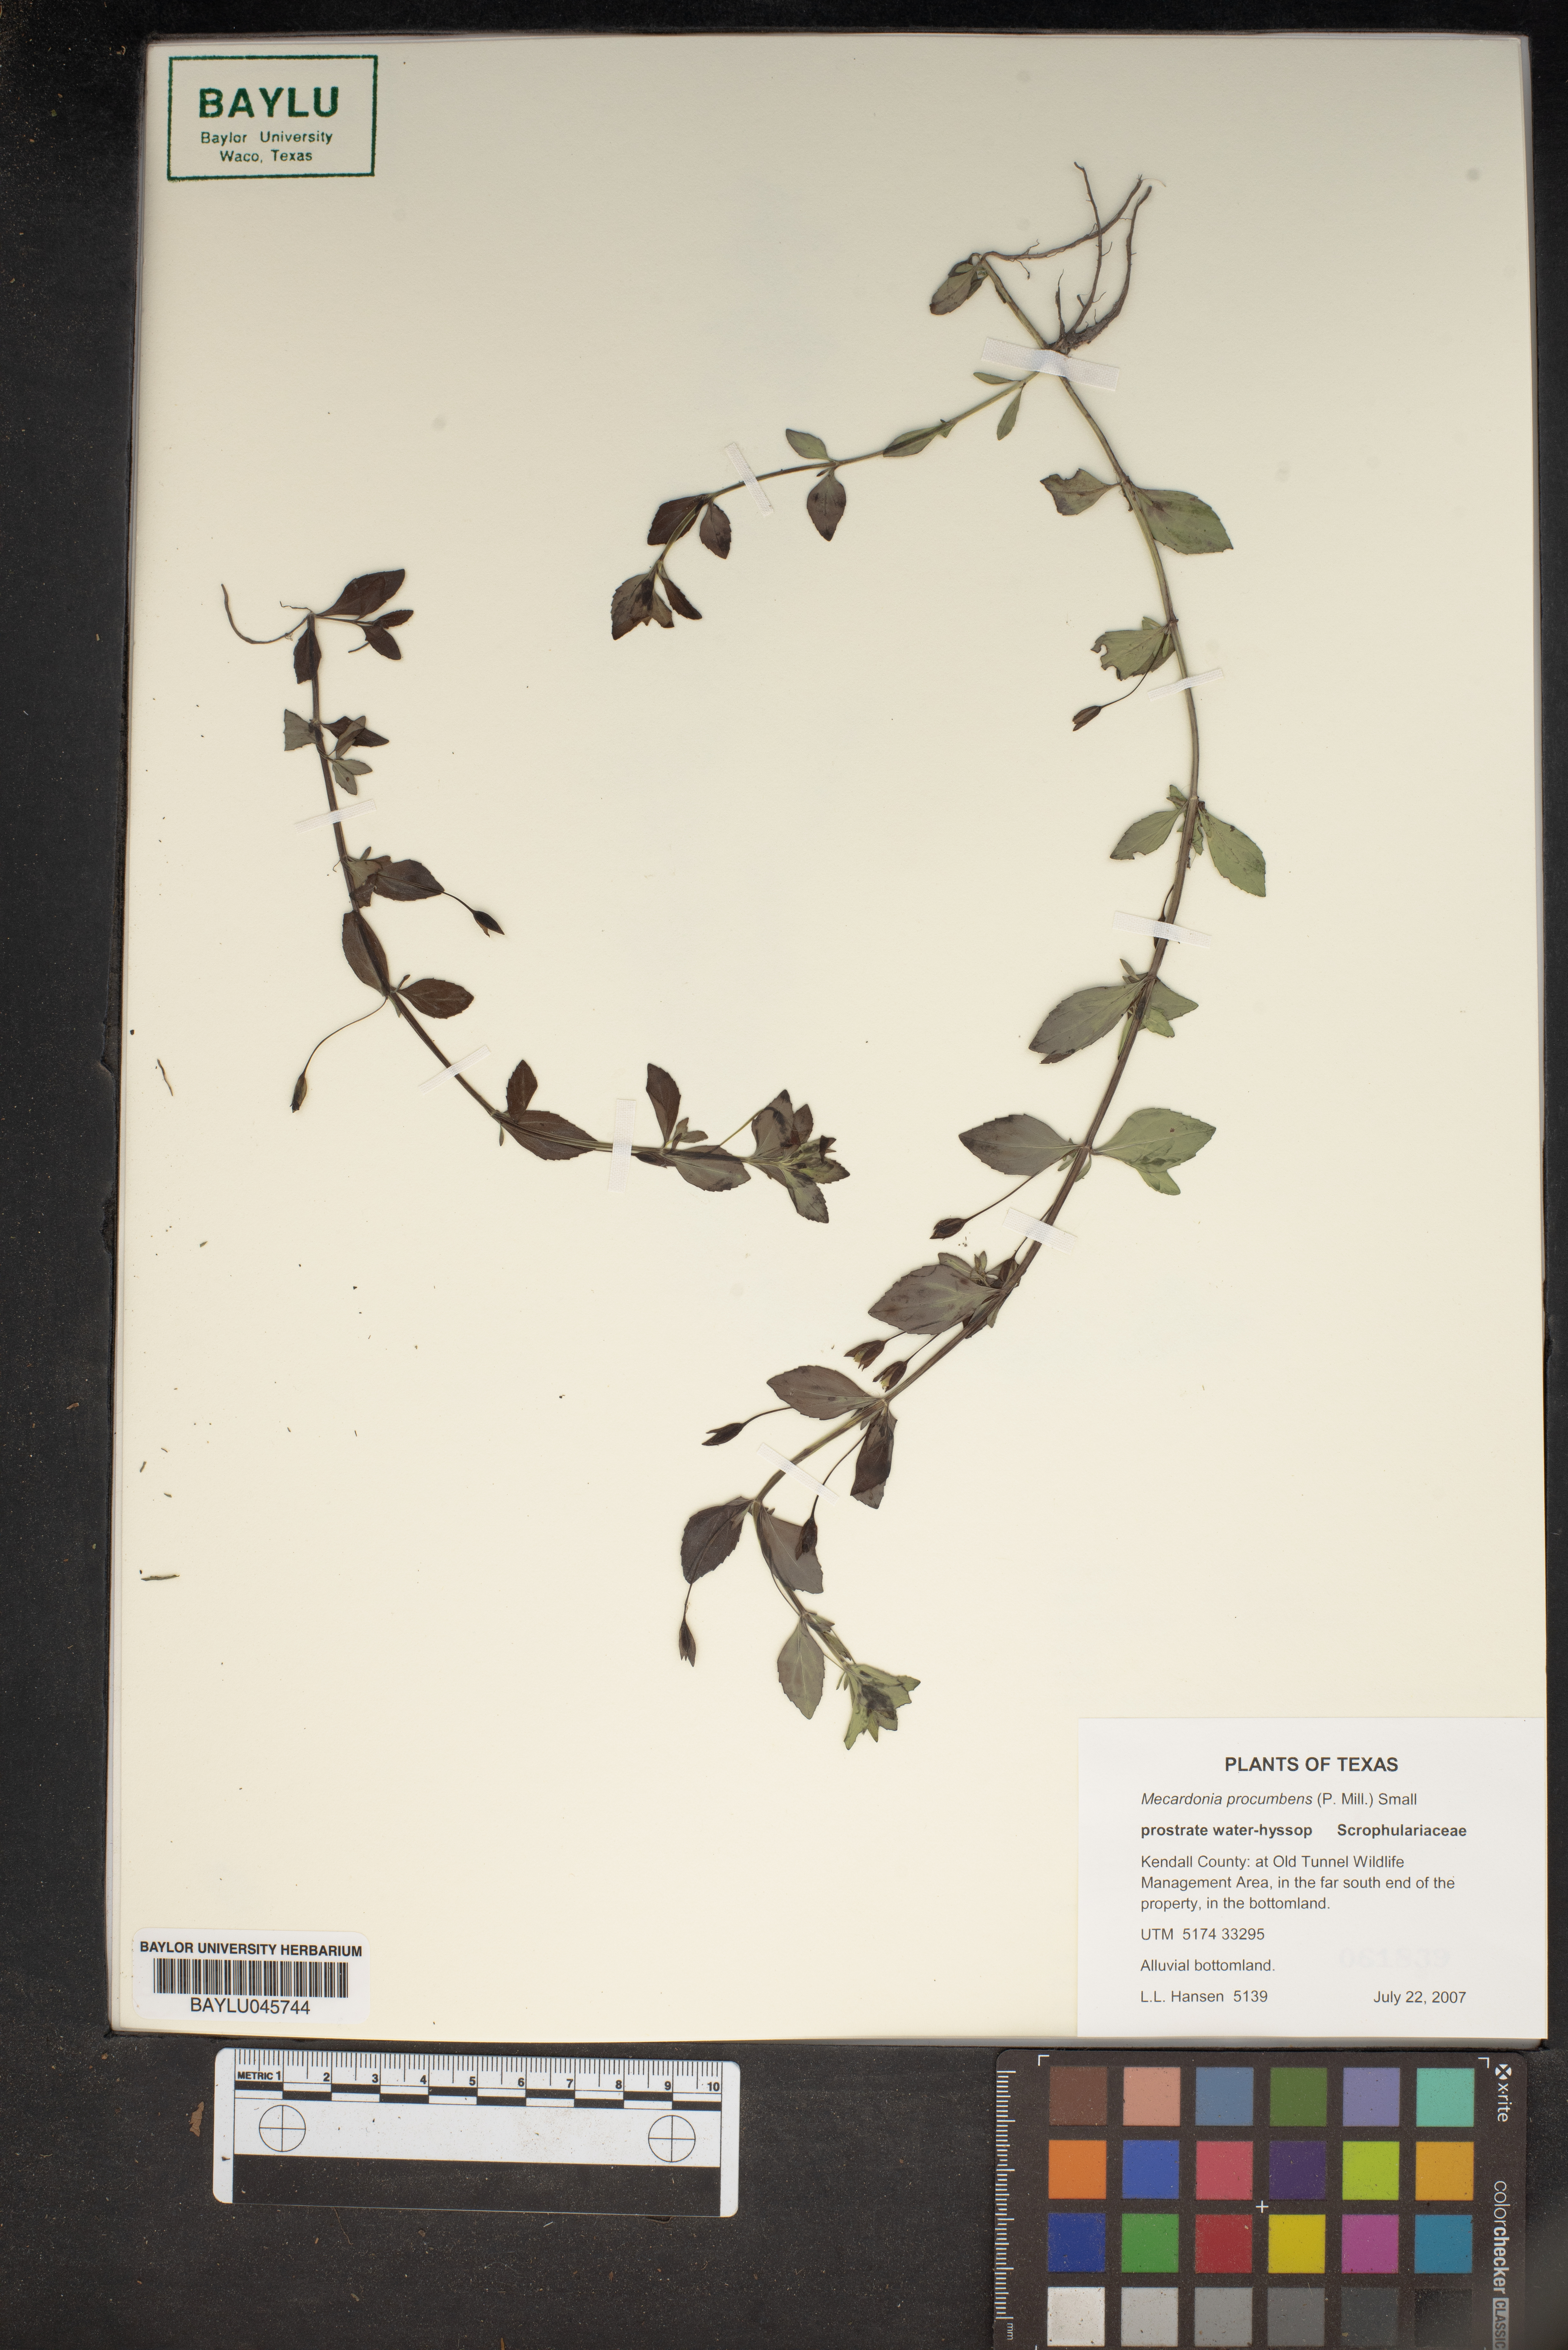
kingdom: Plantae
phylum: Tracheophyta
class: Magnoliopsida
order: Lamiales
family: Plantaginaceae
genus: Mecardonia
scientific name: Mecardonia procumbens
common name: Baby jump-up
